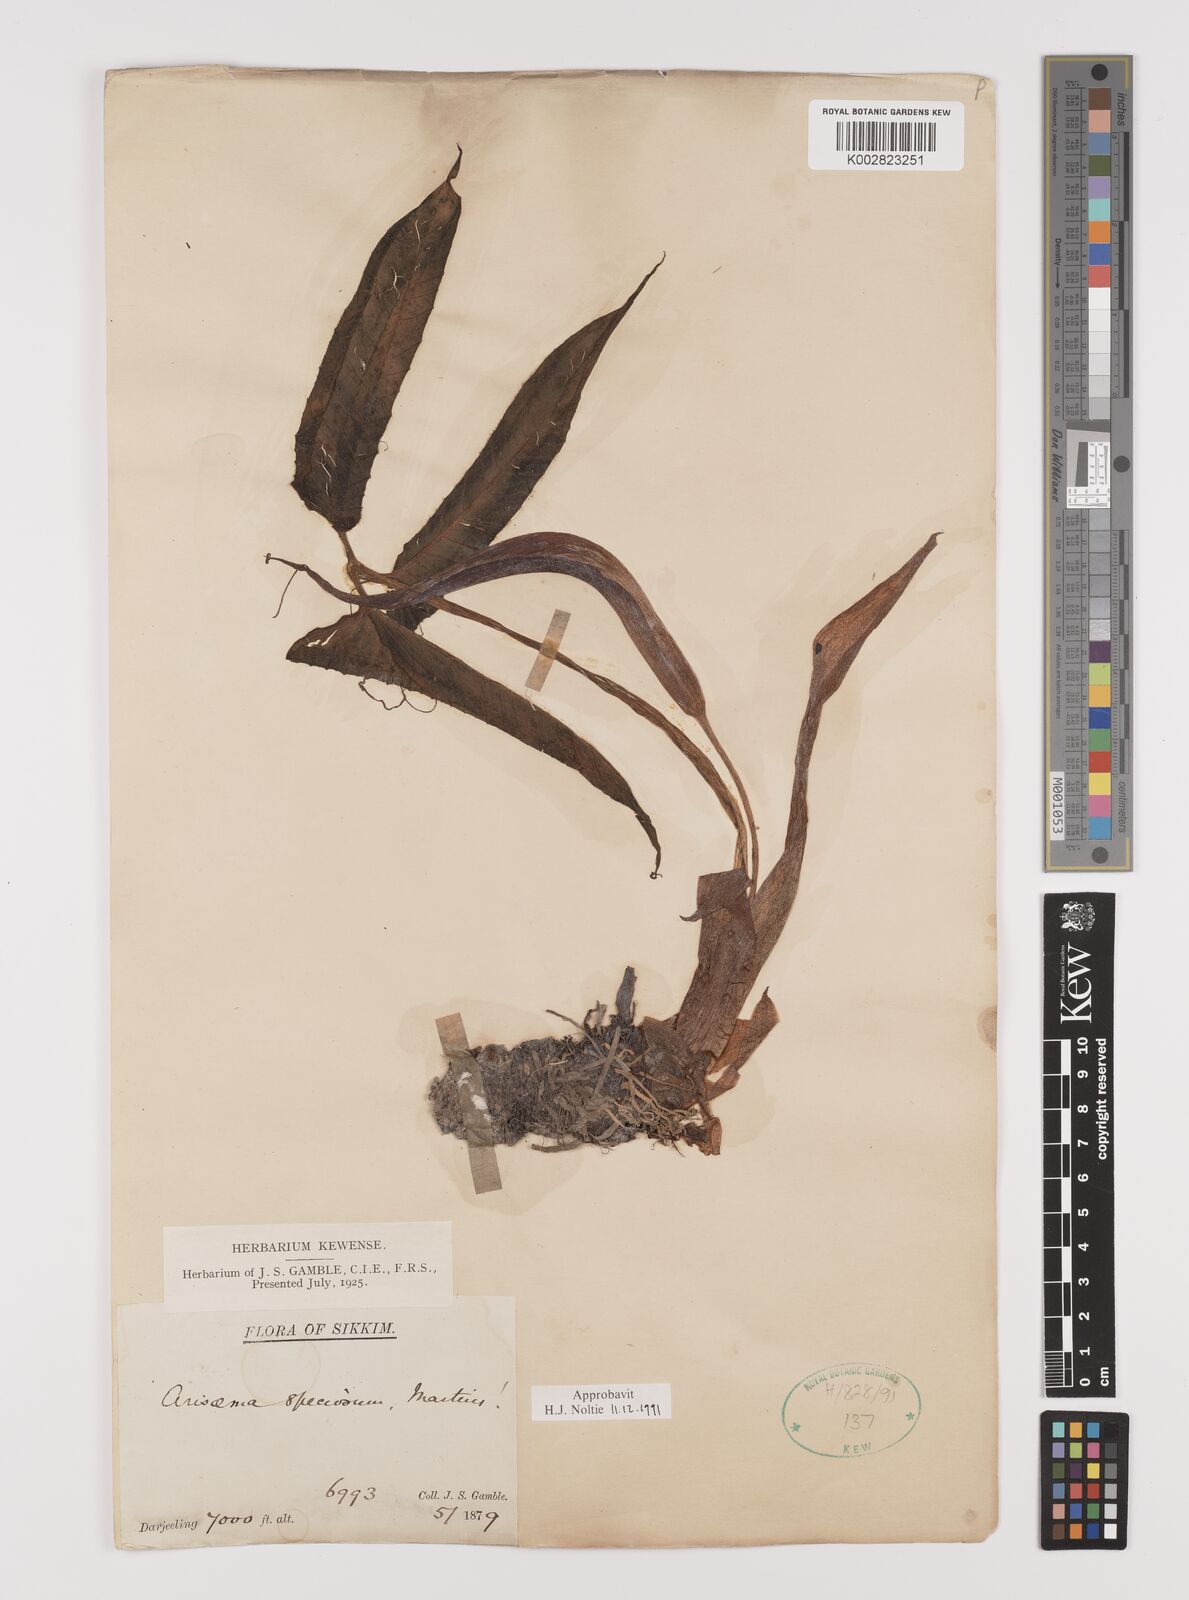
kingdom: Plantae
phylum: Tracheophyta
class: Liliopsida
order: Alismatales
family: Araceae
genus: Arisaema
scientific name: Arisaema speciosum
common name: Showy cobra-lily
